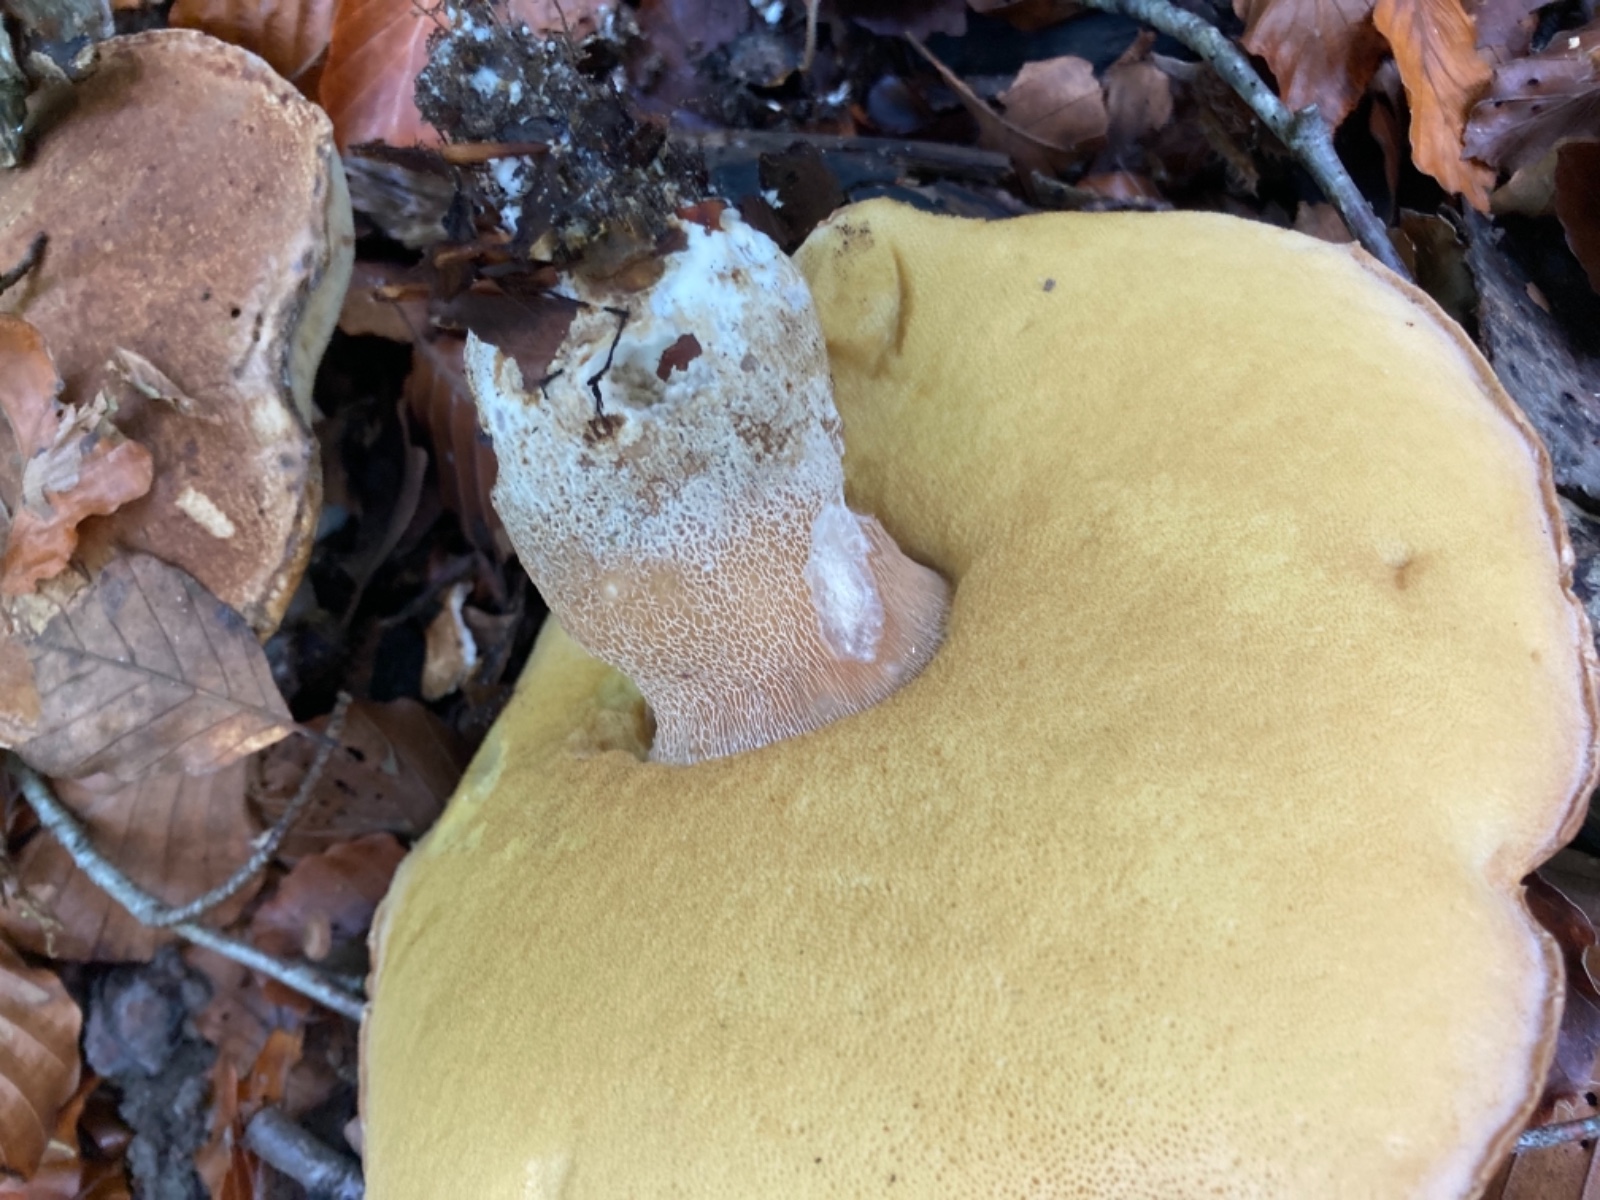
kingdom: Fungi
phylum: Basidiomycota
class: Agaricomycetes
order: Boletales
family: Boletaceae
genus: Boletus
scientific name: Boletus reticulatus
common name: sommer-rørhat
